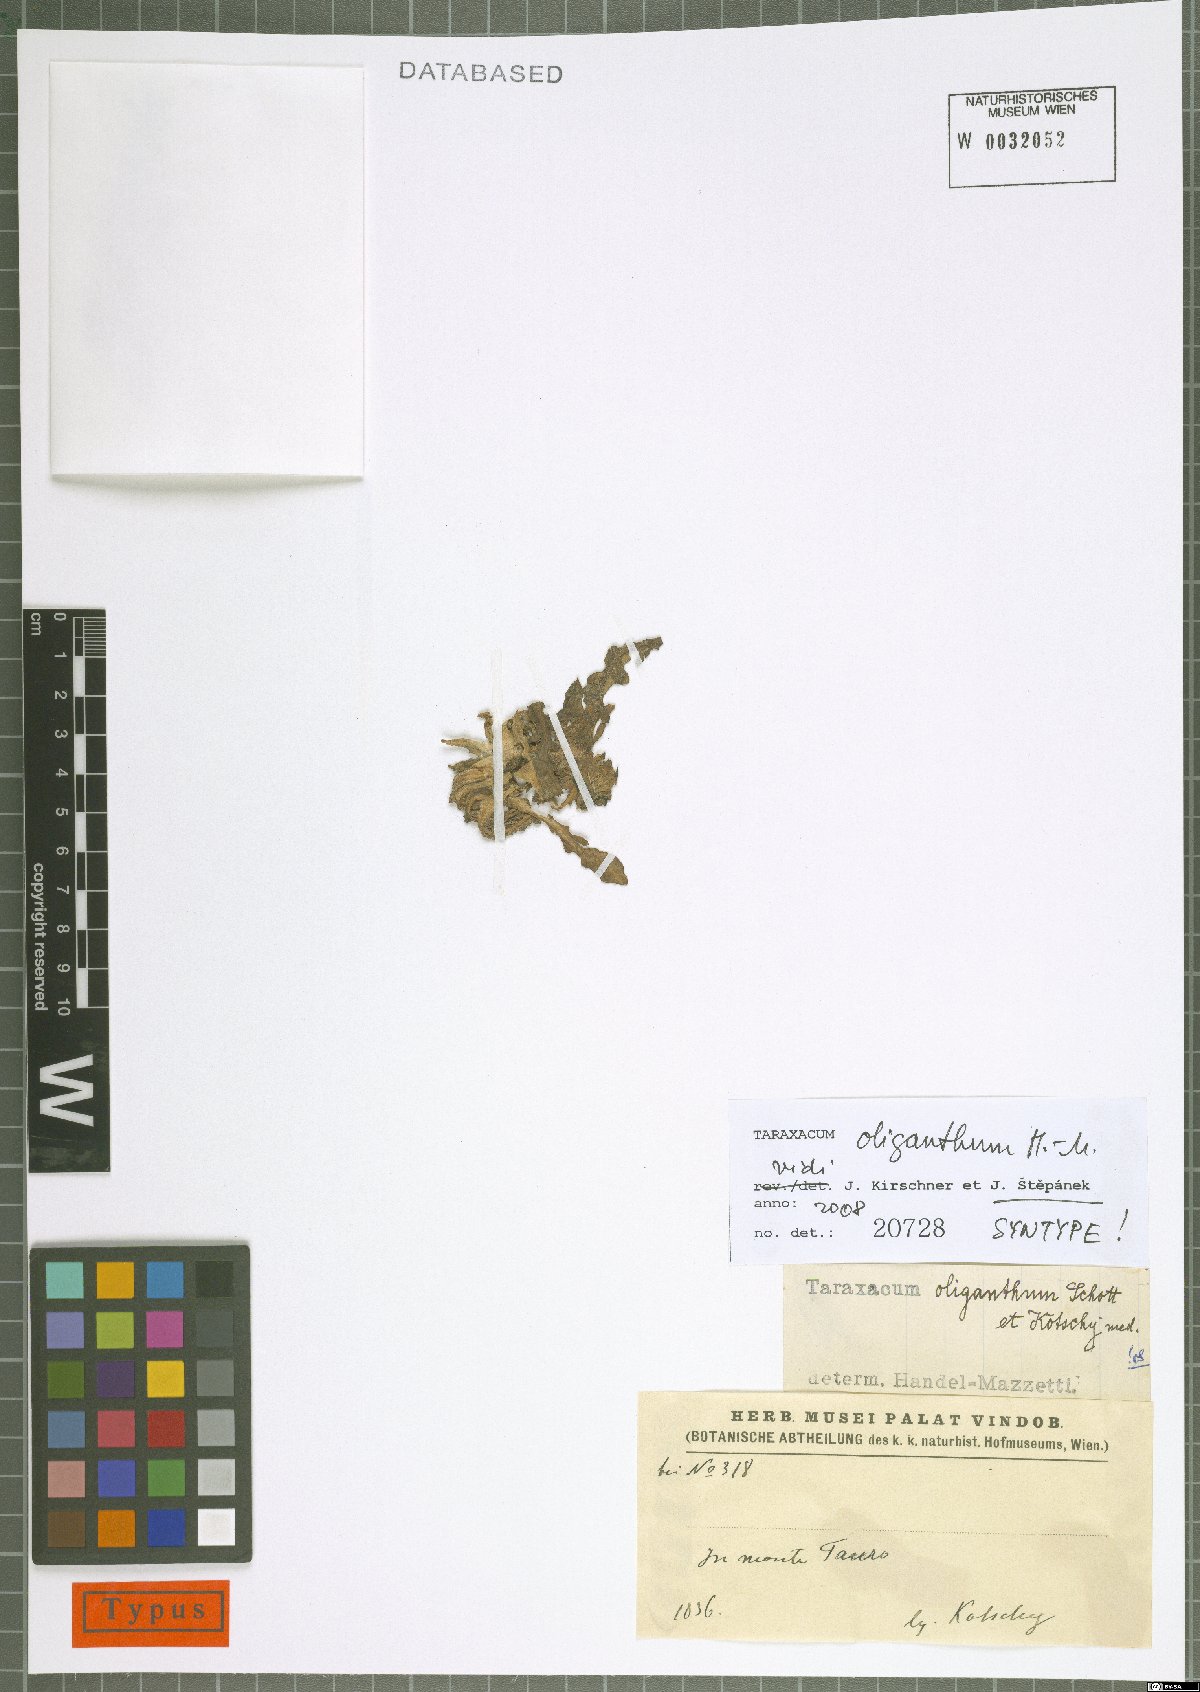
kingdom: Plantae
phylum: Tracheophyta
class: Magnoliopsida
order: Asterales
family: Asteraceae
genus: Taraxacum
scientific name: Taraxacum oliganthum
